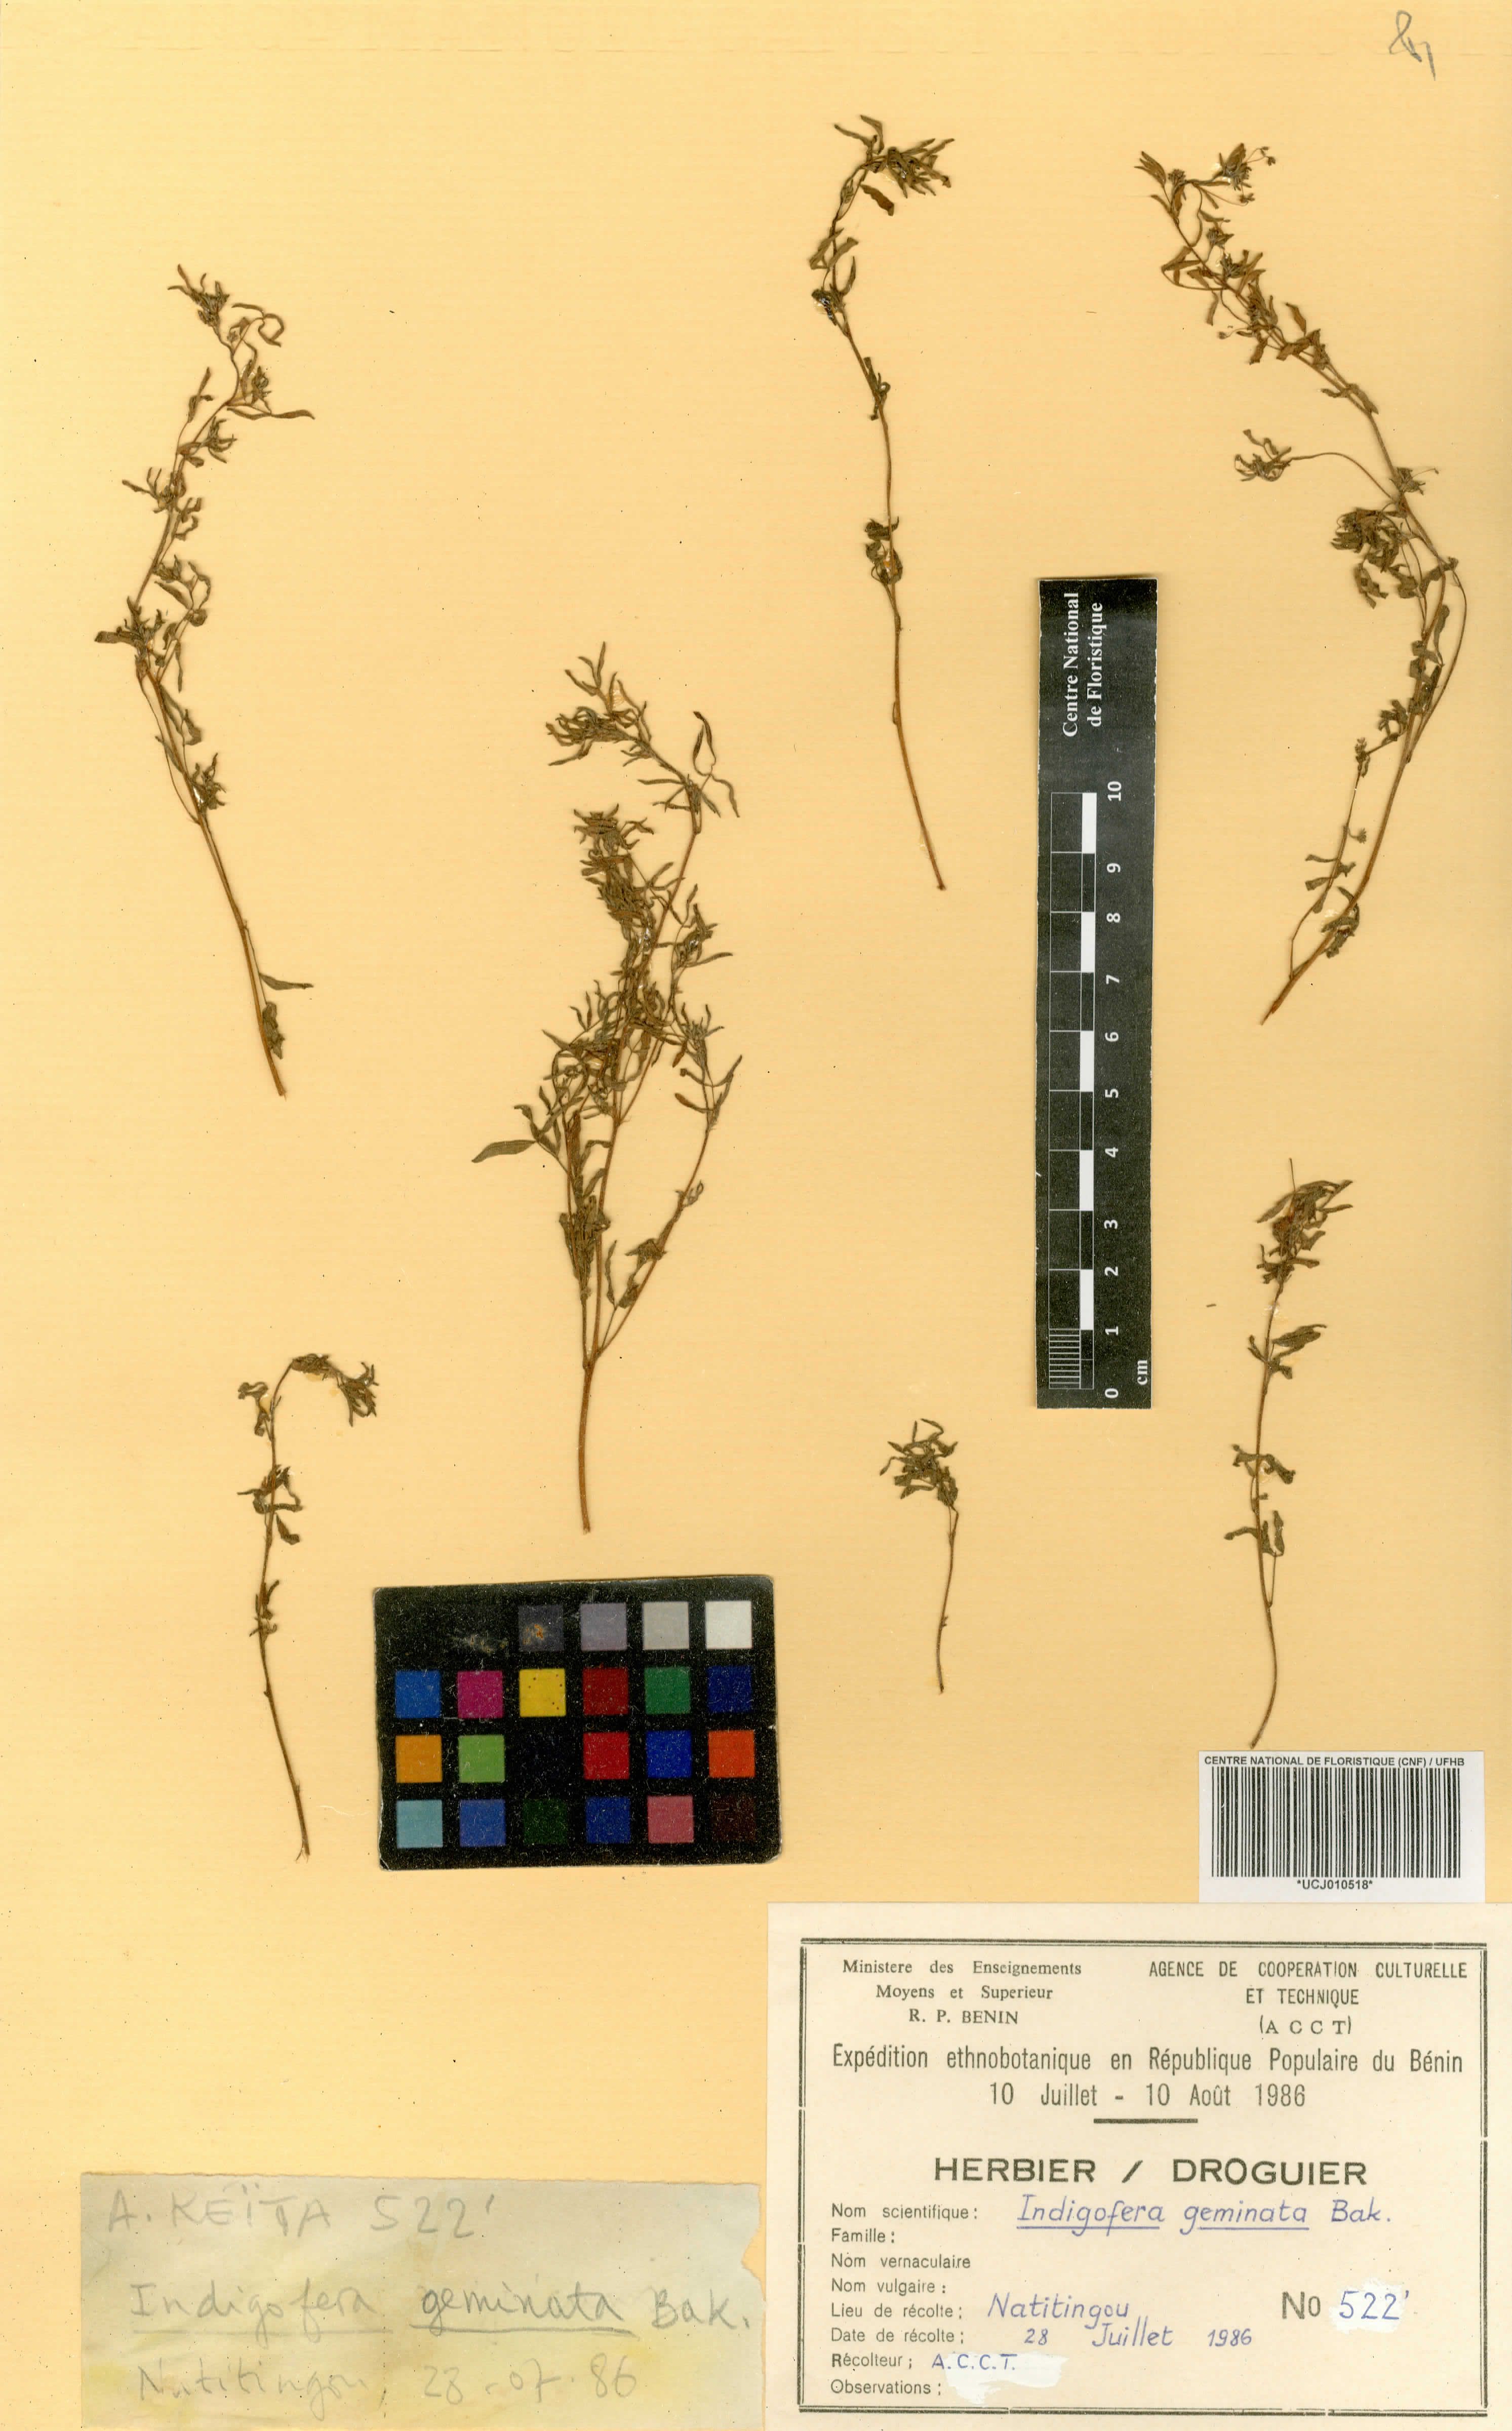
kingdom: Plantae
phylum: Tracheophyta
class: Magnoliopsida
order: Fabales
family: Fabaceae
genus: Indigofera
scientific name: Indigofera hirsuta
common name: Hairy indigo
